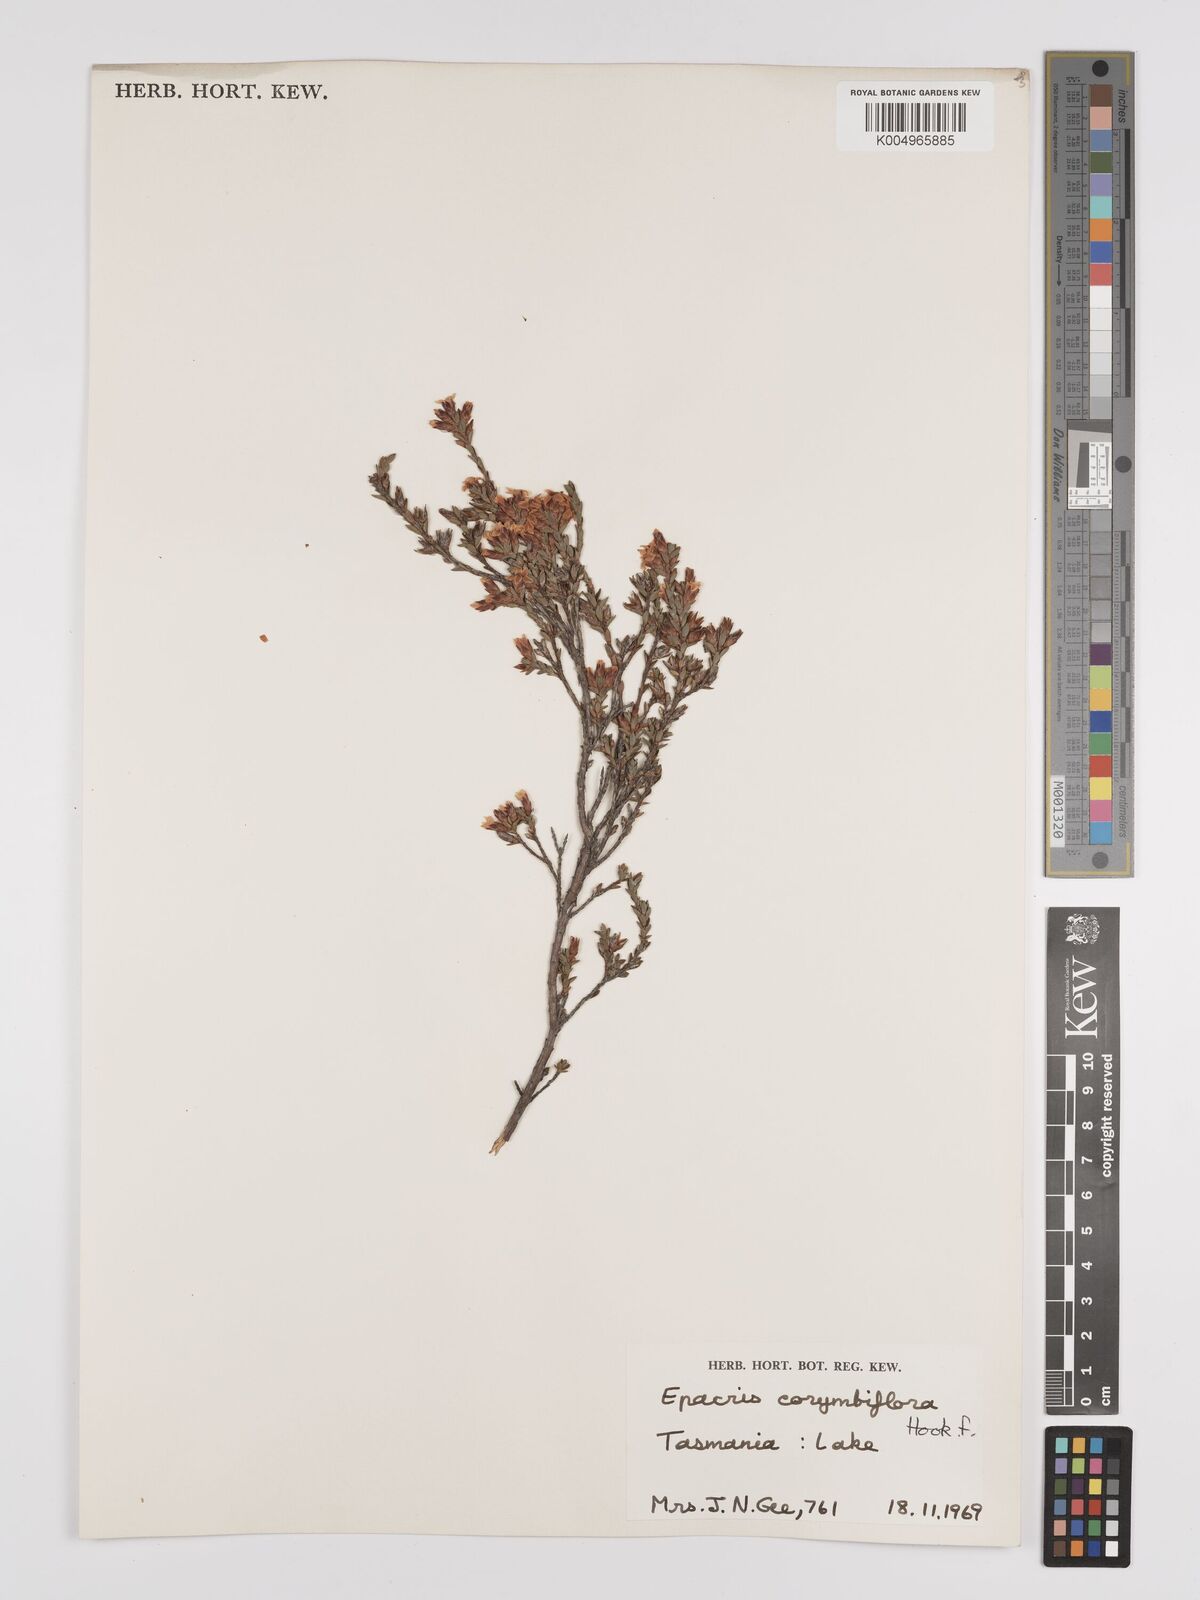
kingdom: Plantae
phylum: Tracheophyta
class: Magnoliopsida
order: Ericales
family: Ericaceae
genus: Epacris
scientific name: Epacris corymbiflora
